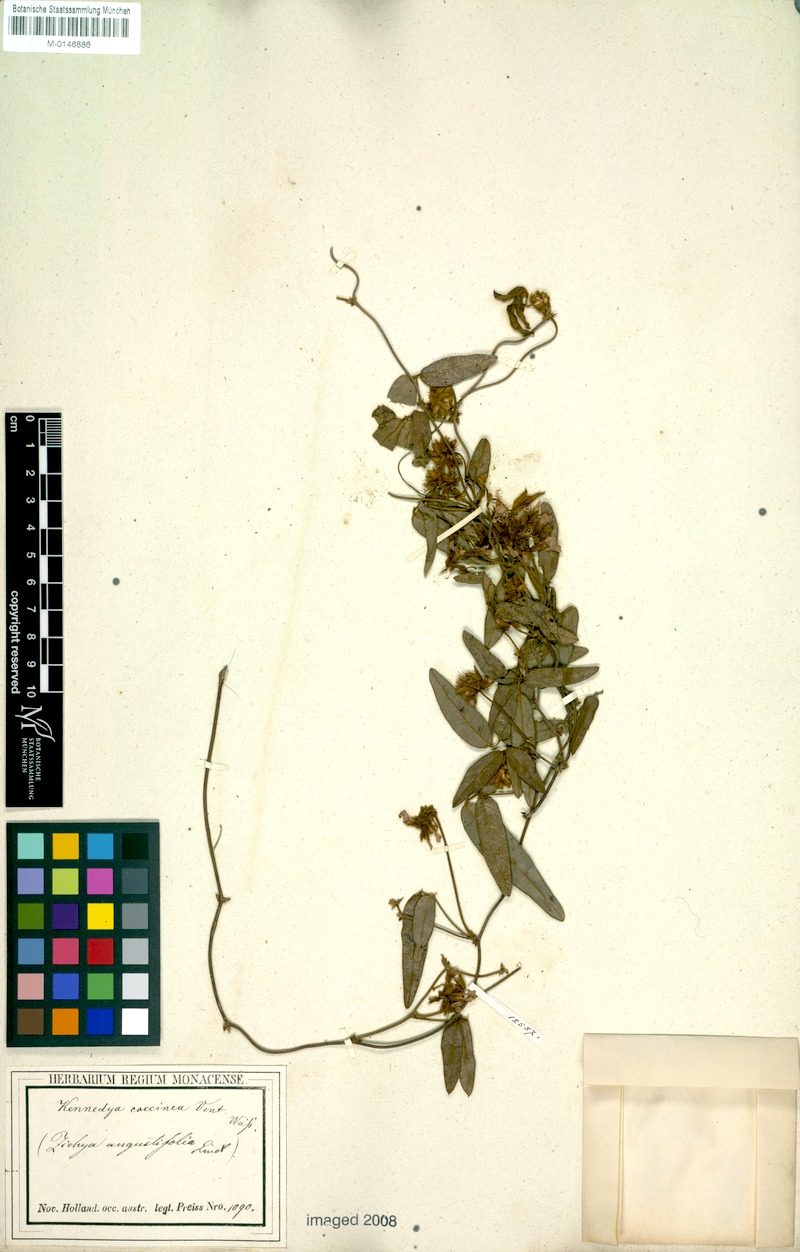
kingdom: Plantae
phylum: Tracheophyta
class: Magnoliopsida
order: Fabales
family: Fabaceae
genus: Kennedia
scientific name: Kennedia coccinea
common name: Coralvine
